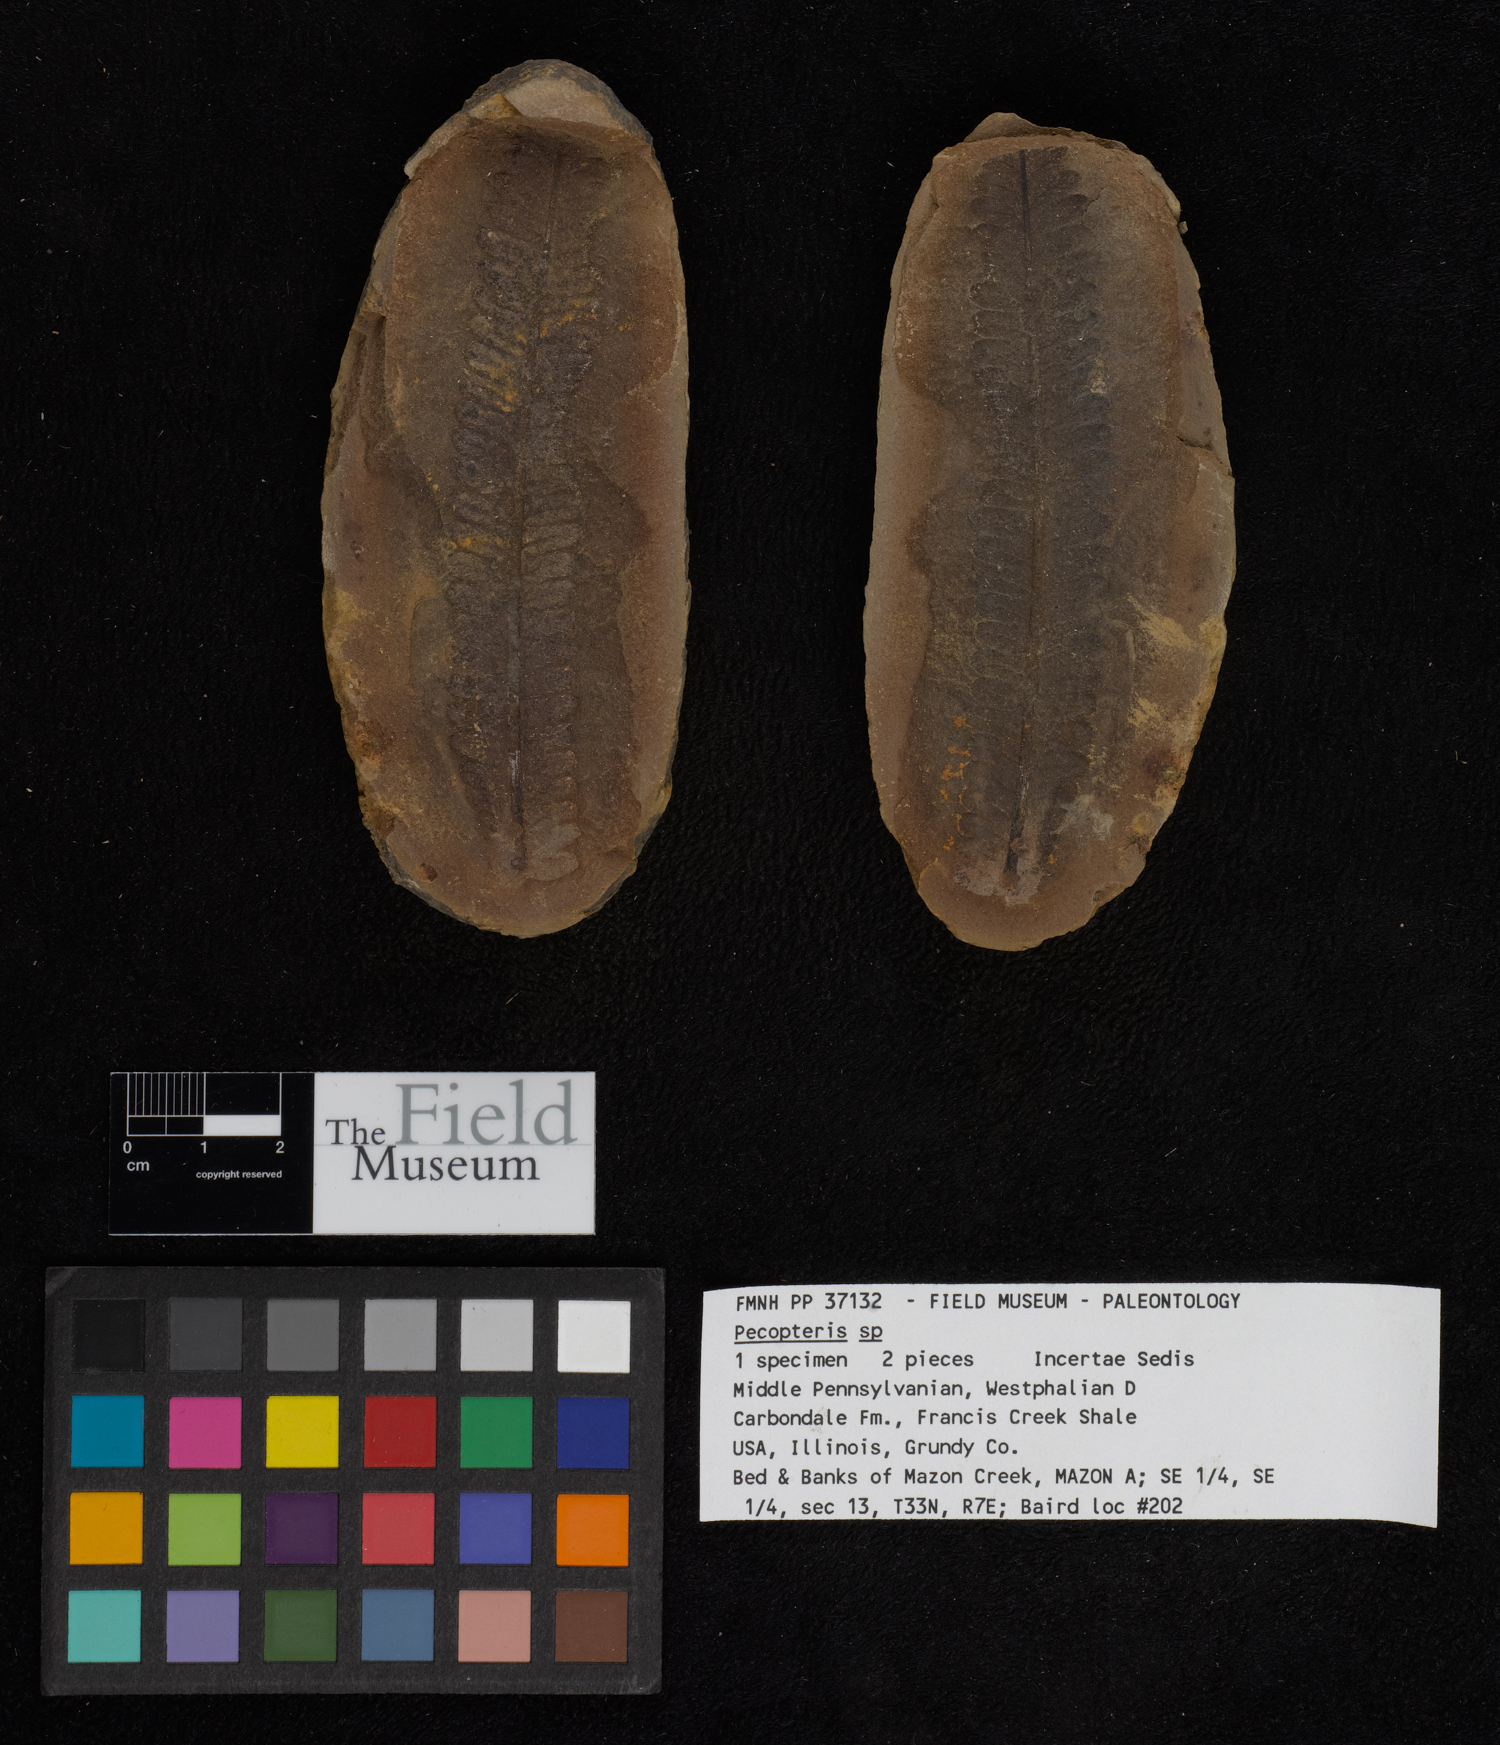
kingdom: Plantae
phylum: Tracheophyta
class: Polypodiopsida
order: Marattiales
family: Asterothecaceae
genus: Pecopteris
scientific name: Pecopteris
